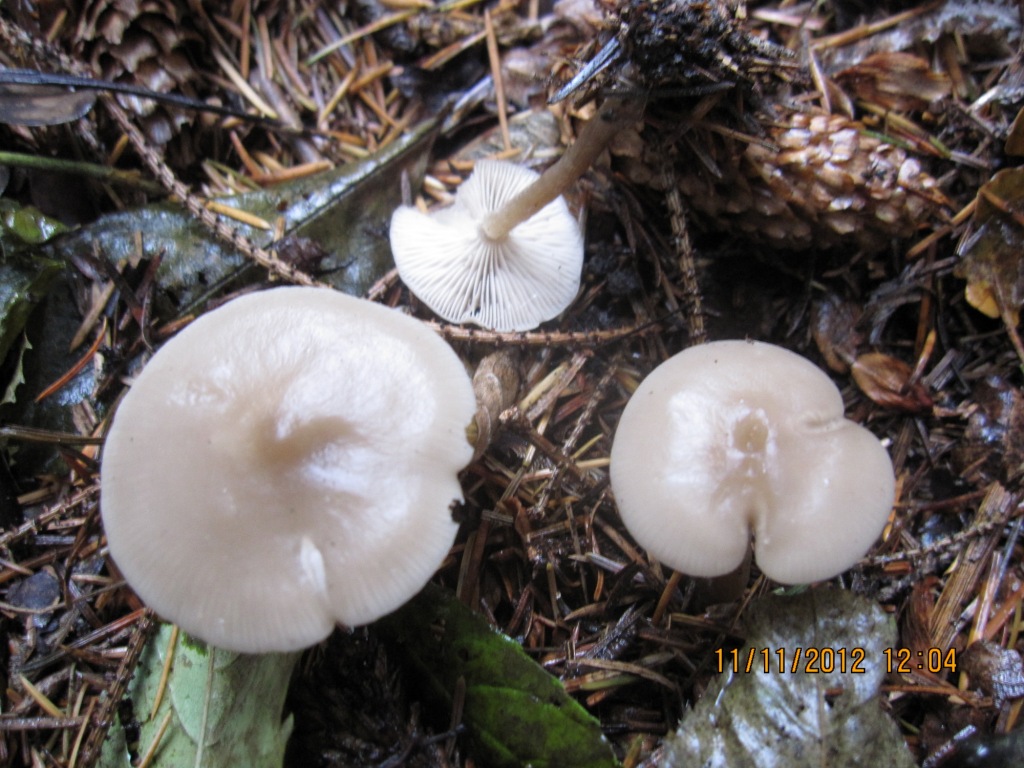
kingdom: Fungi
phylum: Basidiomycota
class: Agaricomycetes
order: Agaricales
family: Tricholomataceae
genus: Clitocybe
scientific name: Clitocybe metachroa
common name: grå tragthat
